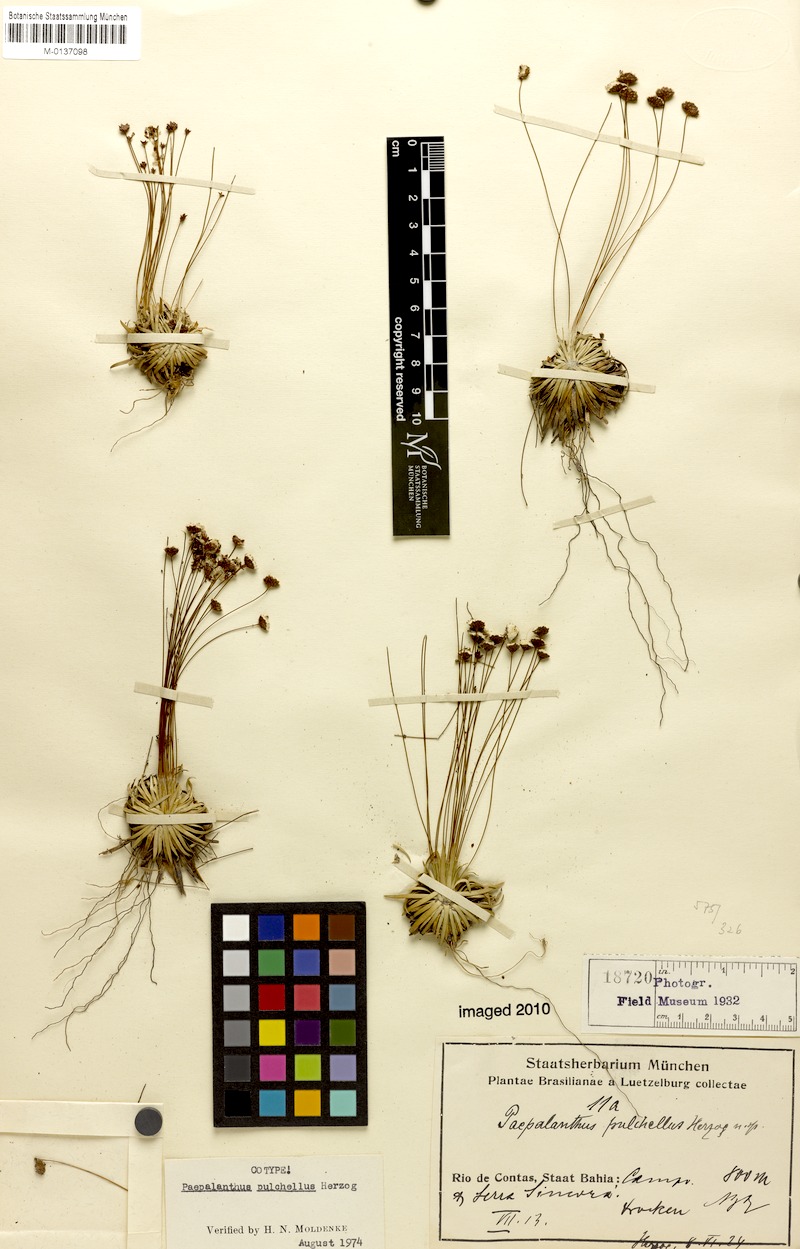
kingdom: Plantae
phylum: Tracheophyta
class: Liliopsida
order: Poales
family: Eriocaulaceae
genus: Paepalanthus
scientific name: Paepalanthus pulchellus
